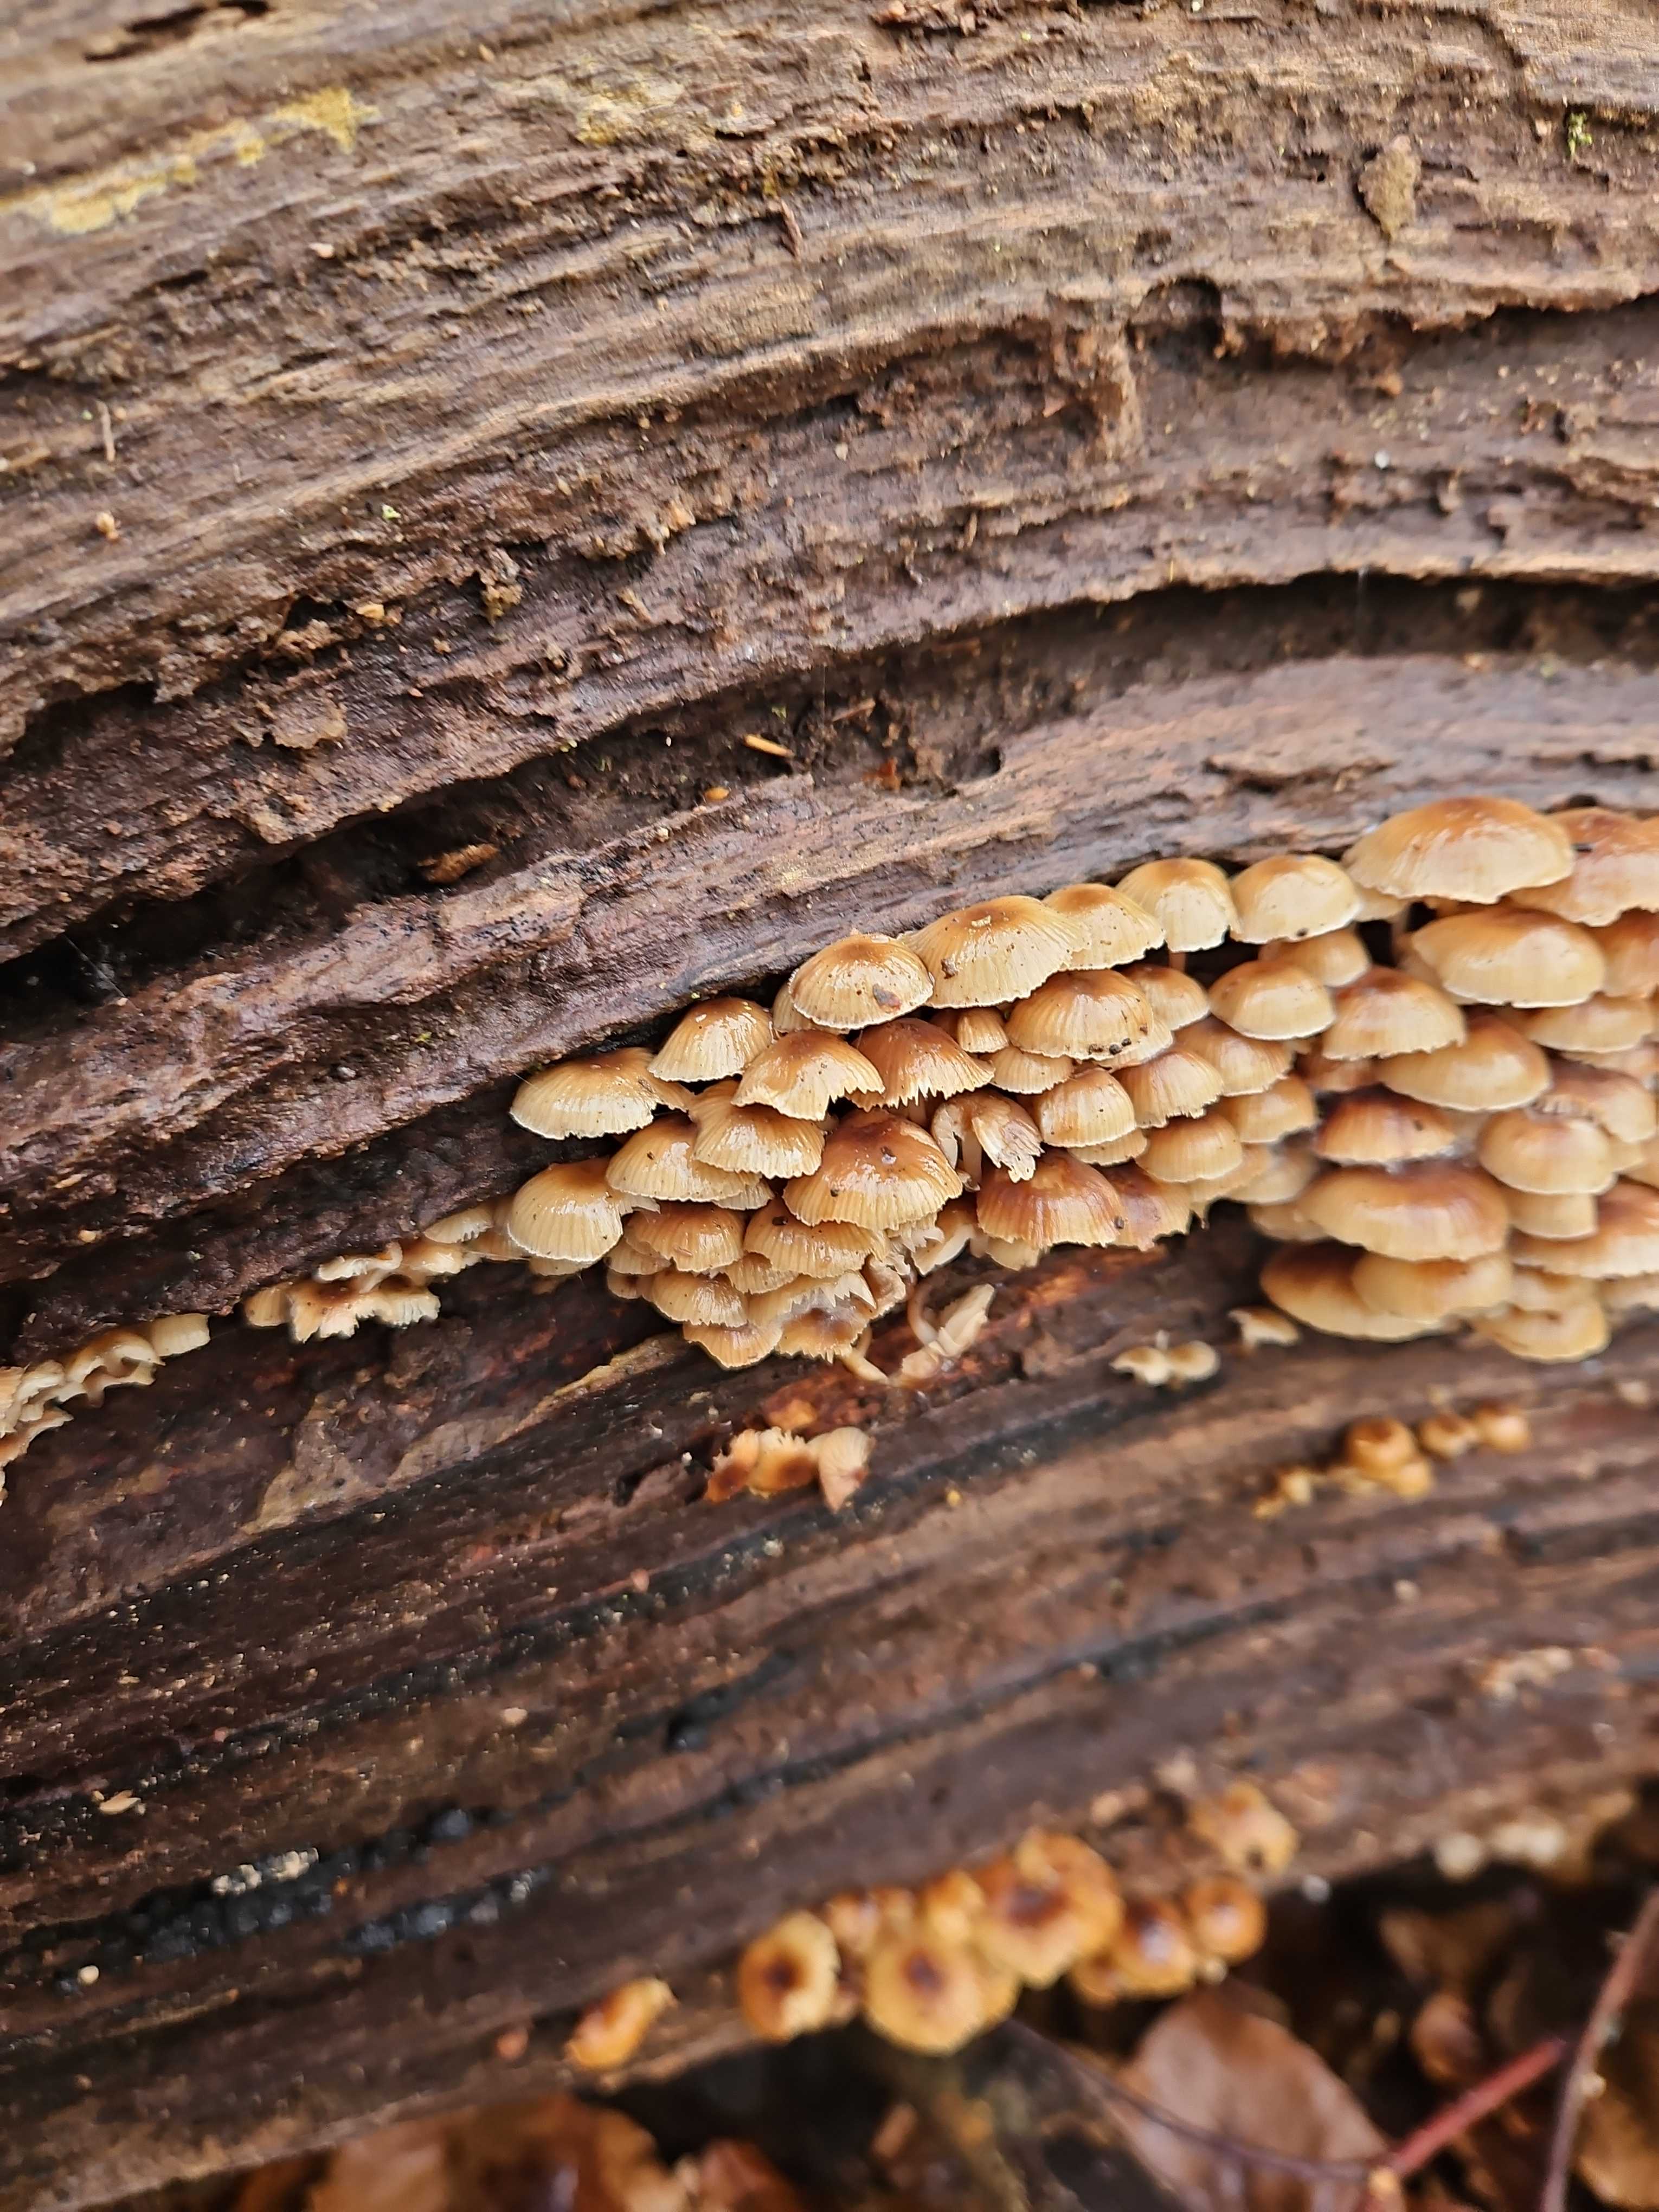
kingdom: Fungi
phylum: Basidiomycota
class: Agaricomycetes
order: Agaricales
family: Mycenaceae
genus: Mycena
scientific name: Mycena tintinnabulum
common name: vinter-huesvamp
